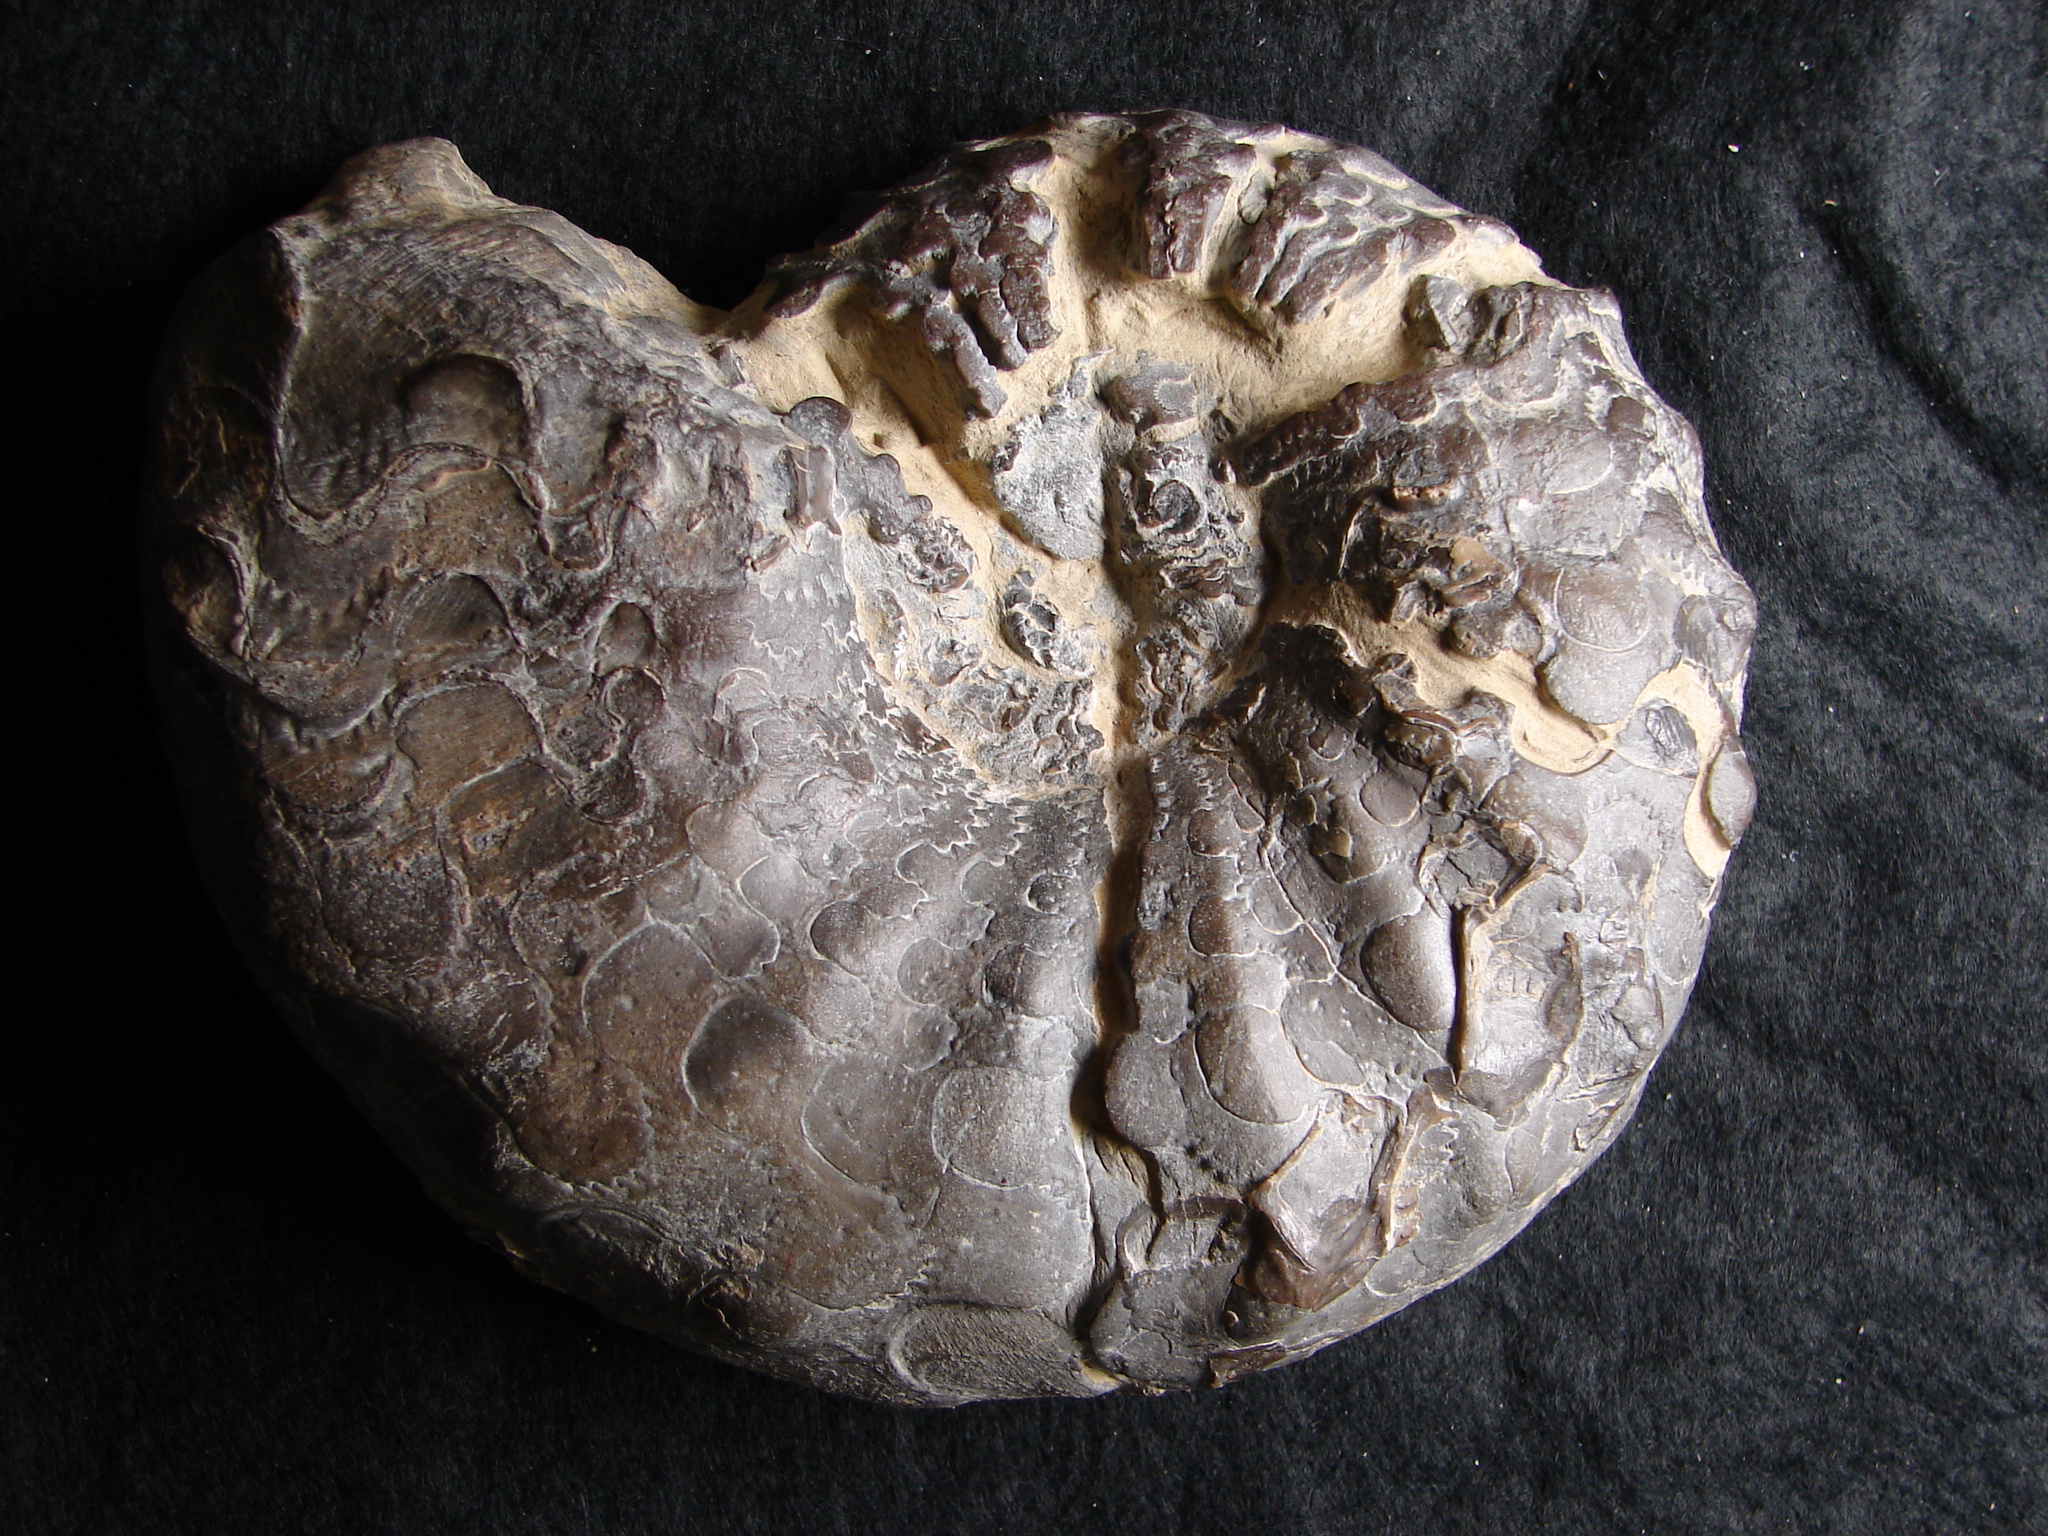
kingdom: Animalia
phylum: Mollusca
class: Cephalopoda
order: Ceratitida
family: Ceratitidae
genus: Ceratites
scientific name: Ceratites nodosus
